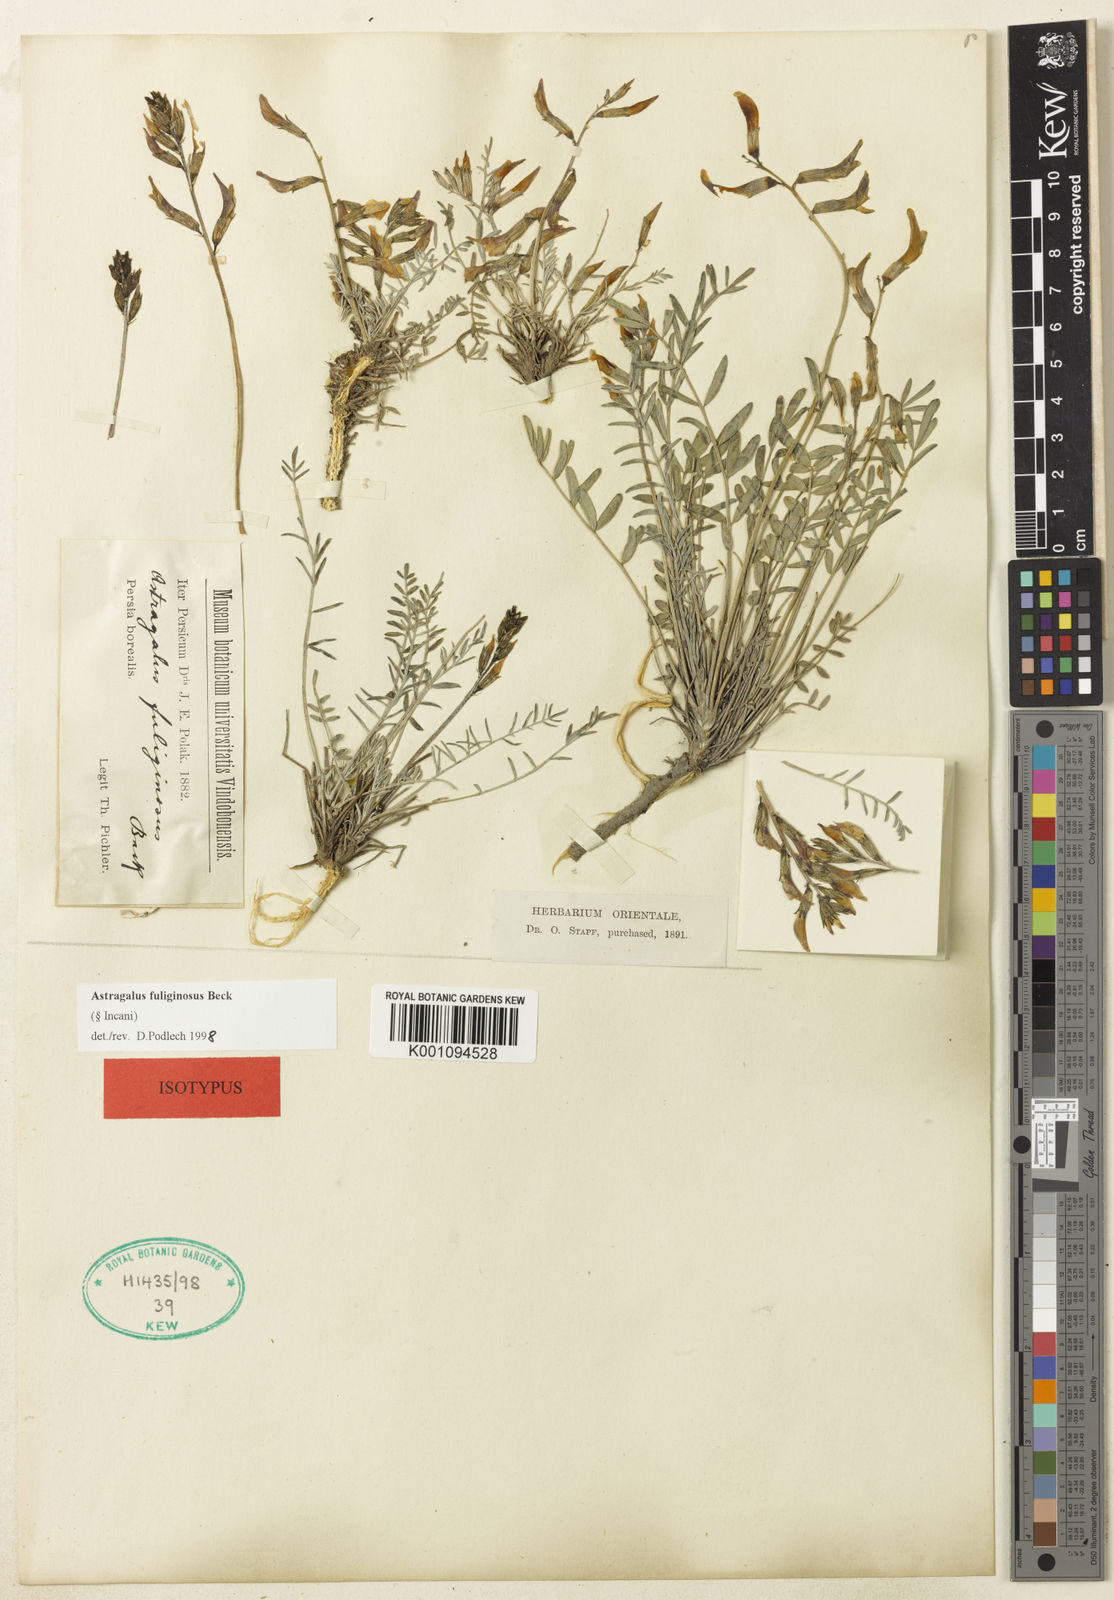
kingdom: Plantae
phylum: Tracheophyta
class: Magnoliopsida
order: Fabales
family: Fabaceae
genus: Astragalus
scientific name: Astragalus
